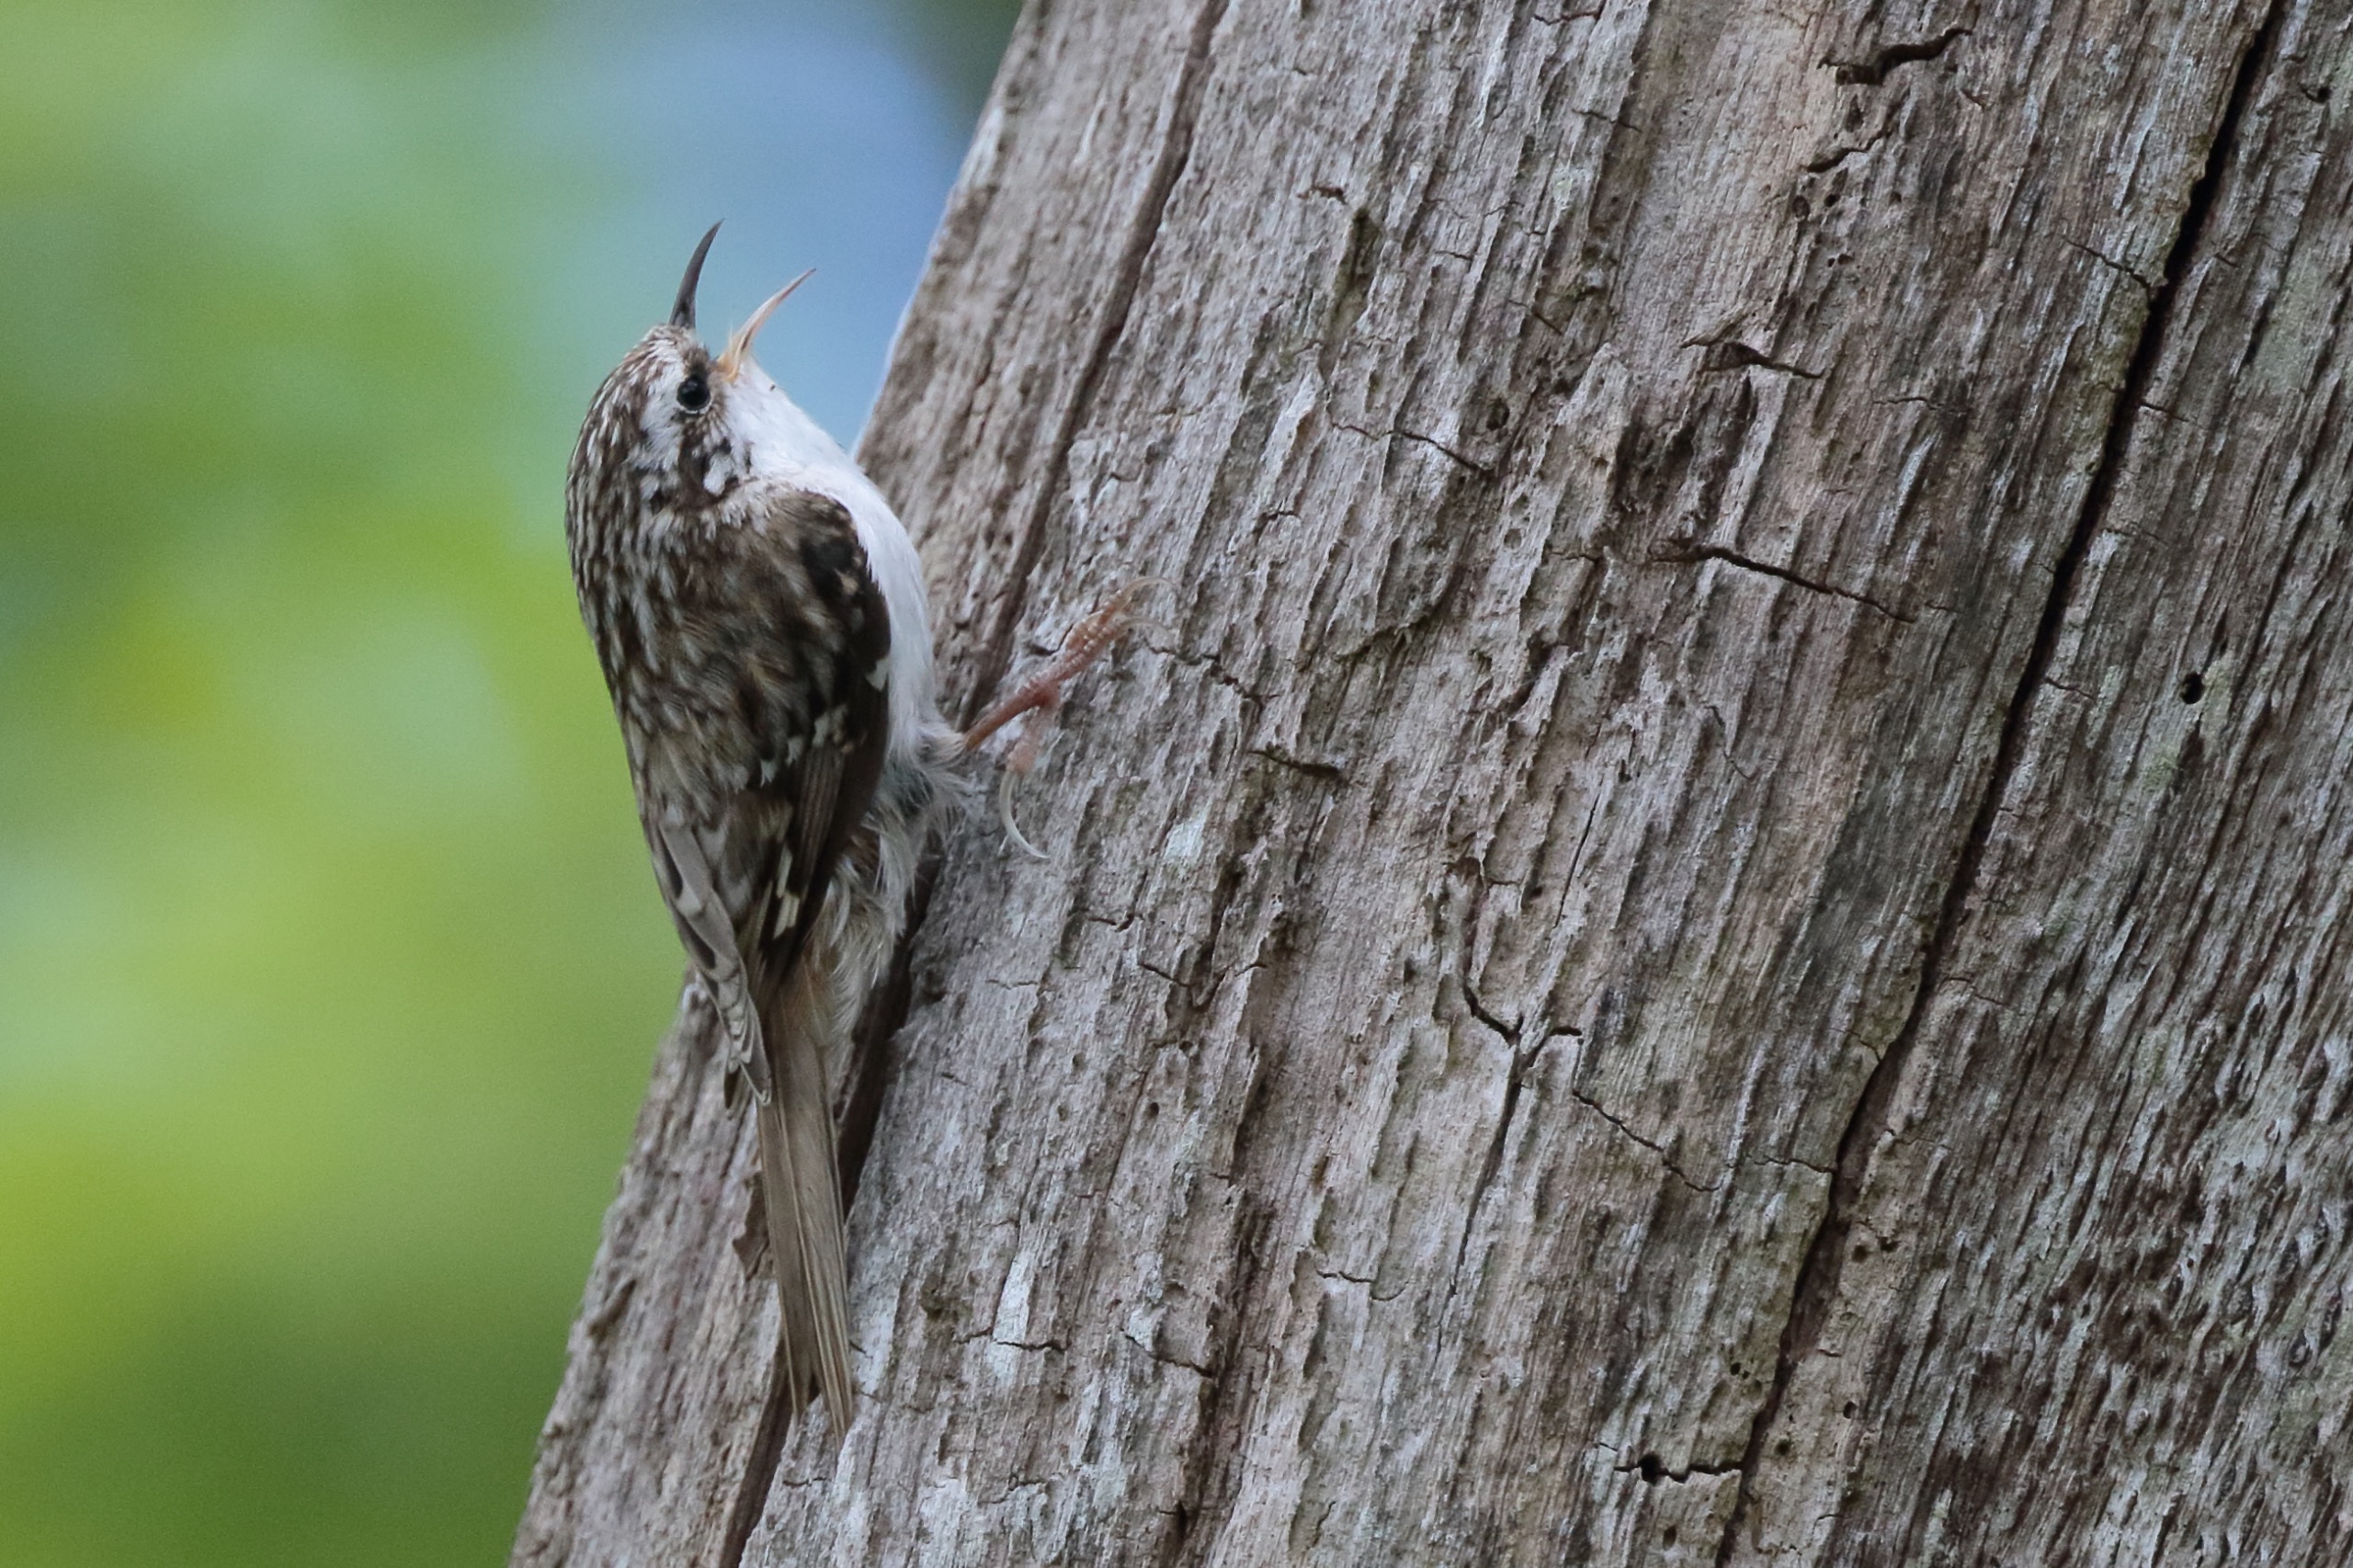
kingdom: Animalia
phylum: Chordata
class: Aves
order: Passeriformes
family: Certhiidae
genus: Certhia
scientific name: Certhia familiaris
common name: Træløber
